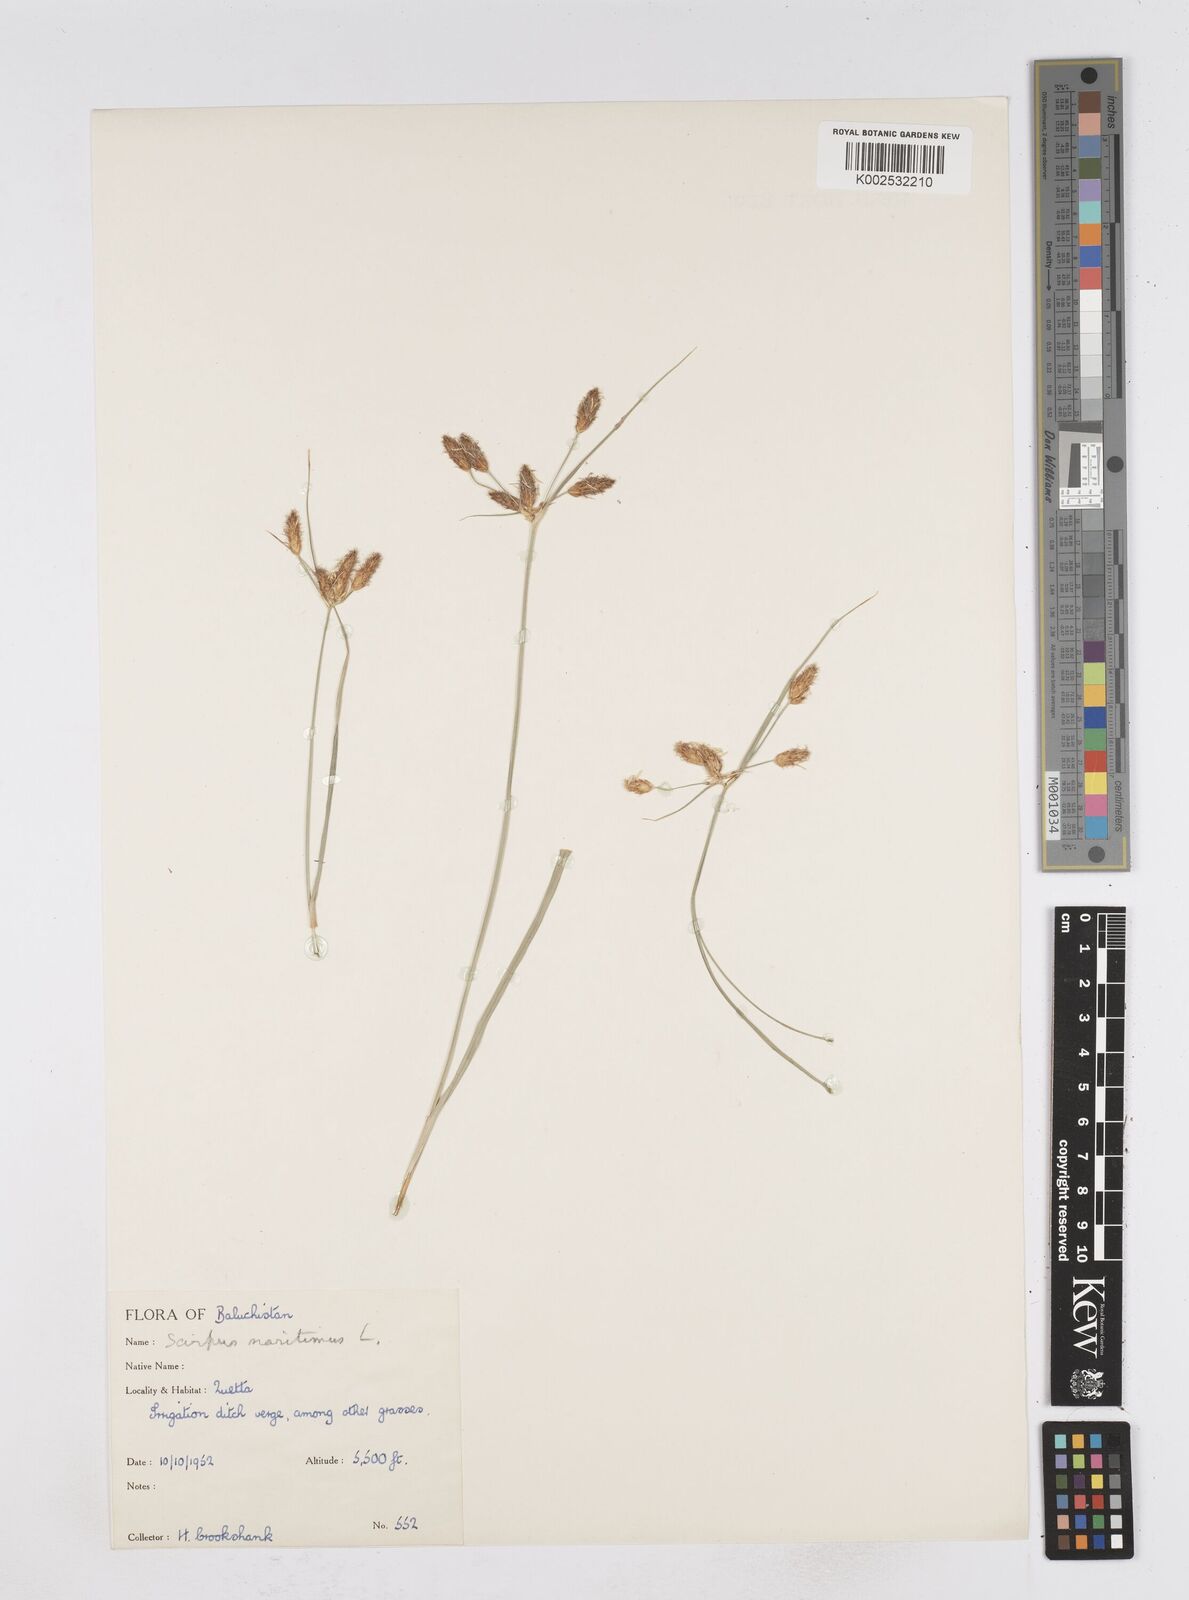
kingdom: Plantae
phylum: Tracheophyta
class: Liliopsida
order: Poales
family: Cyperaceae
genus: Bolboschoenus
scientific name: Bolboschoenus maritimus
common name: Sea club-rush
